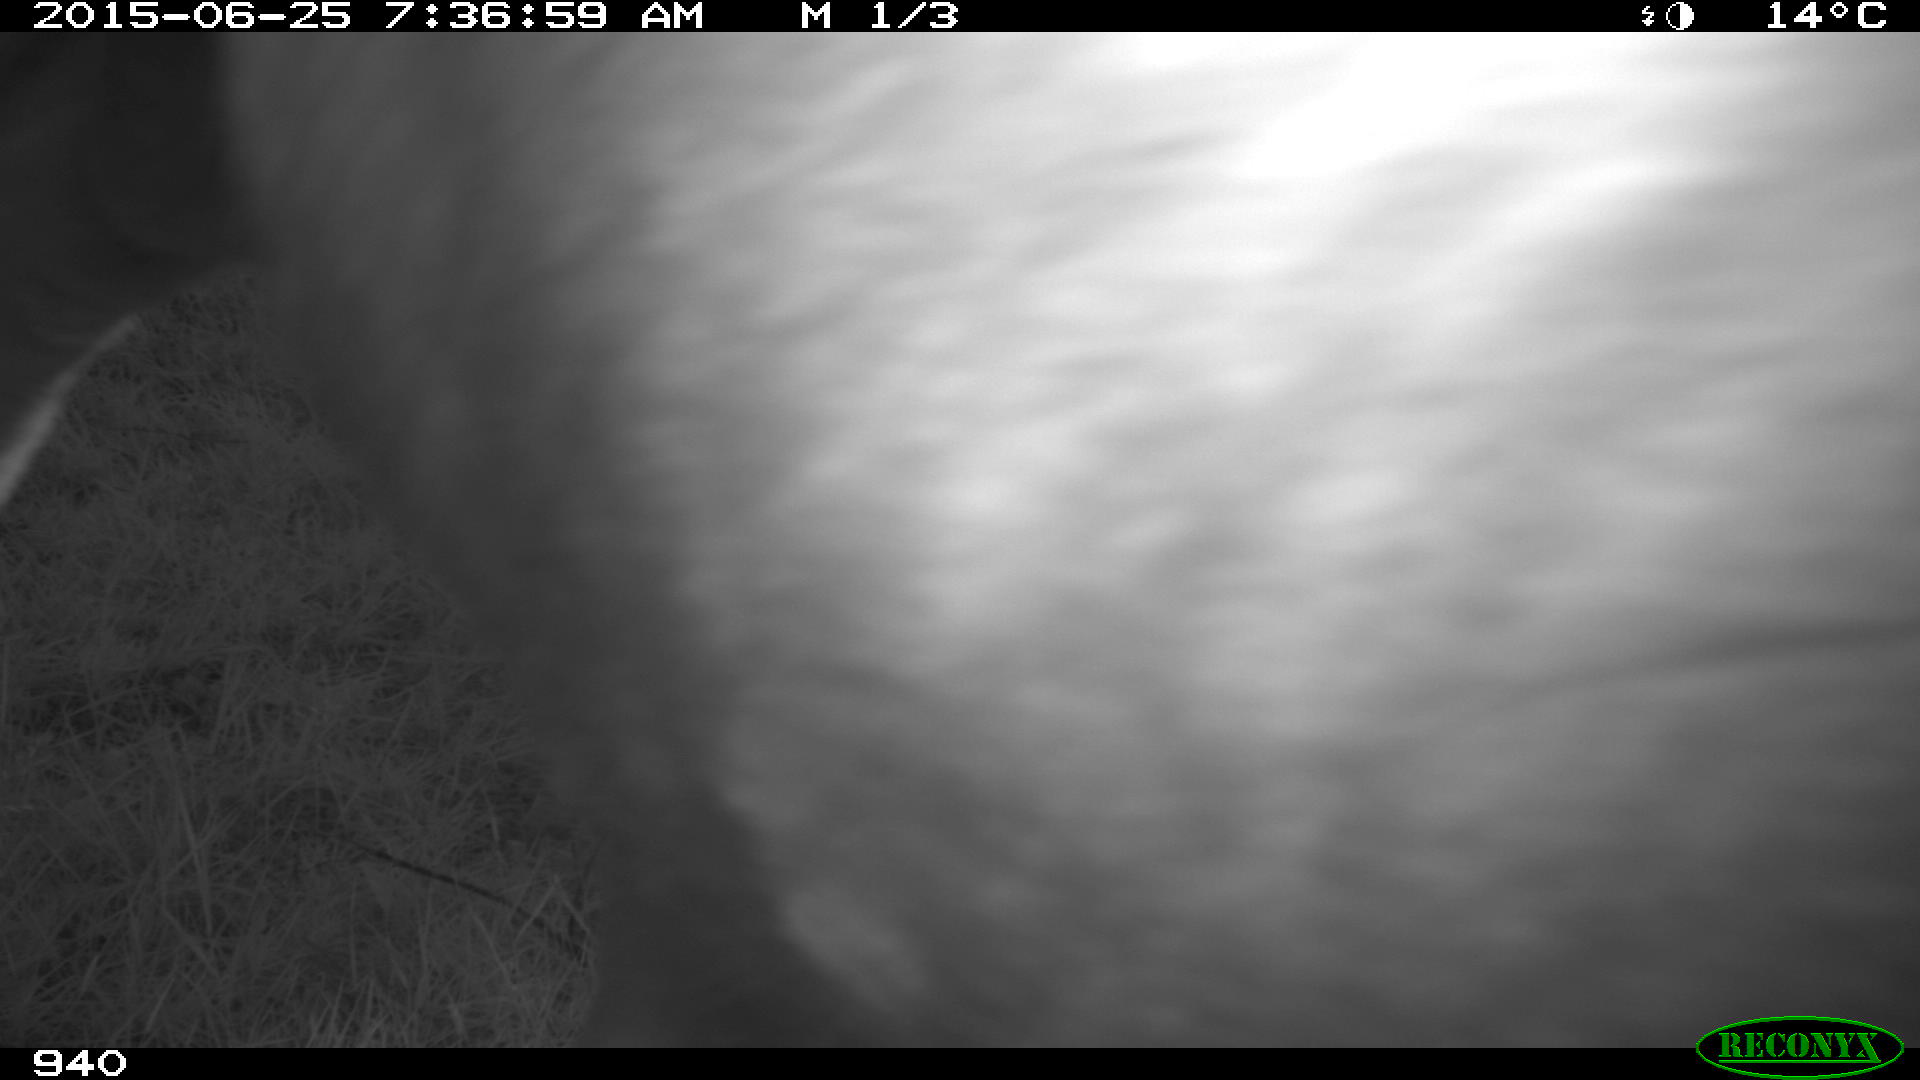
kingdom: Animalia
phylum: Chordata
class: Mammalia
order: Artiodactyla
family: Bovidae
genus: Bos
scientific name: Bos taurus
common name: Domesticated cattle
